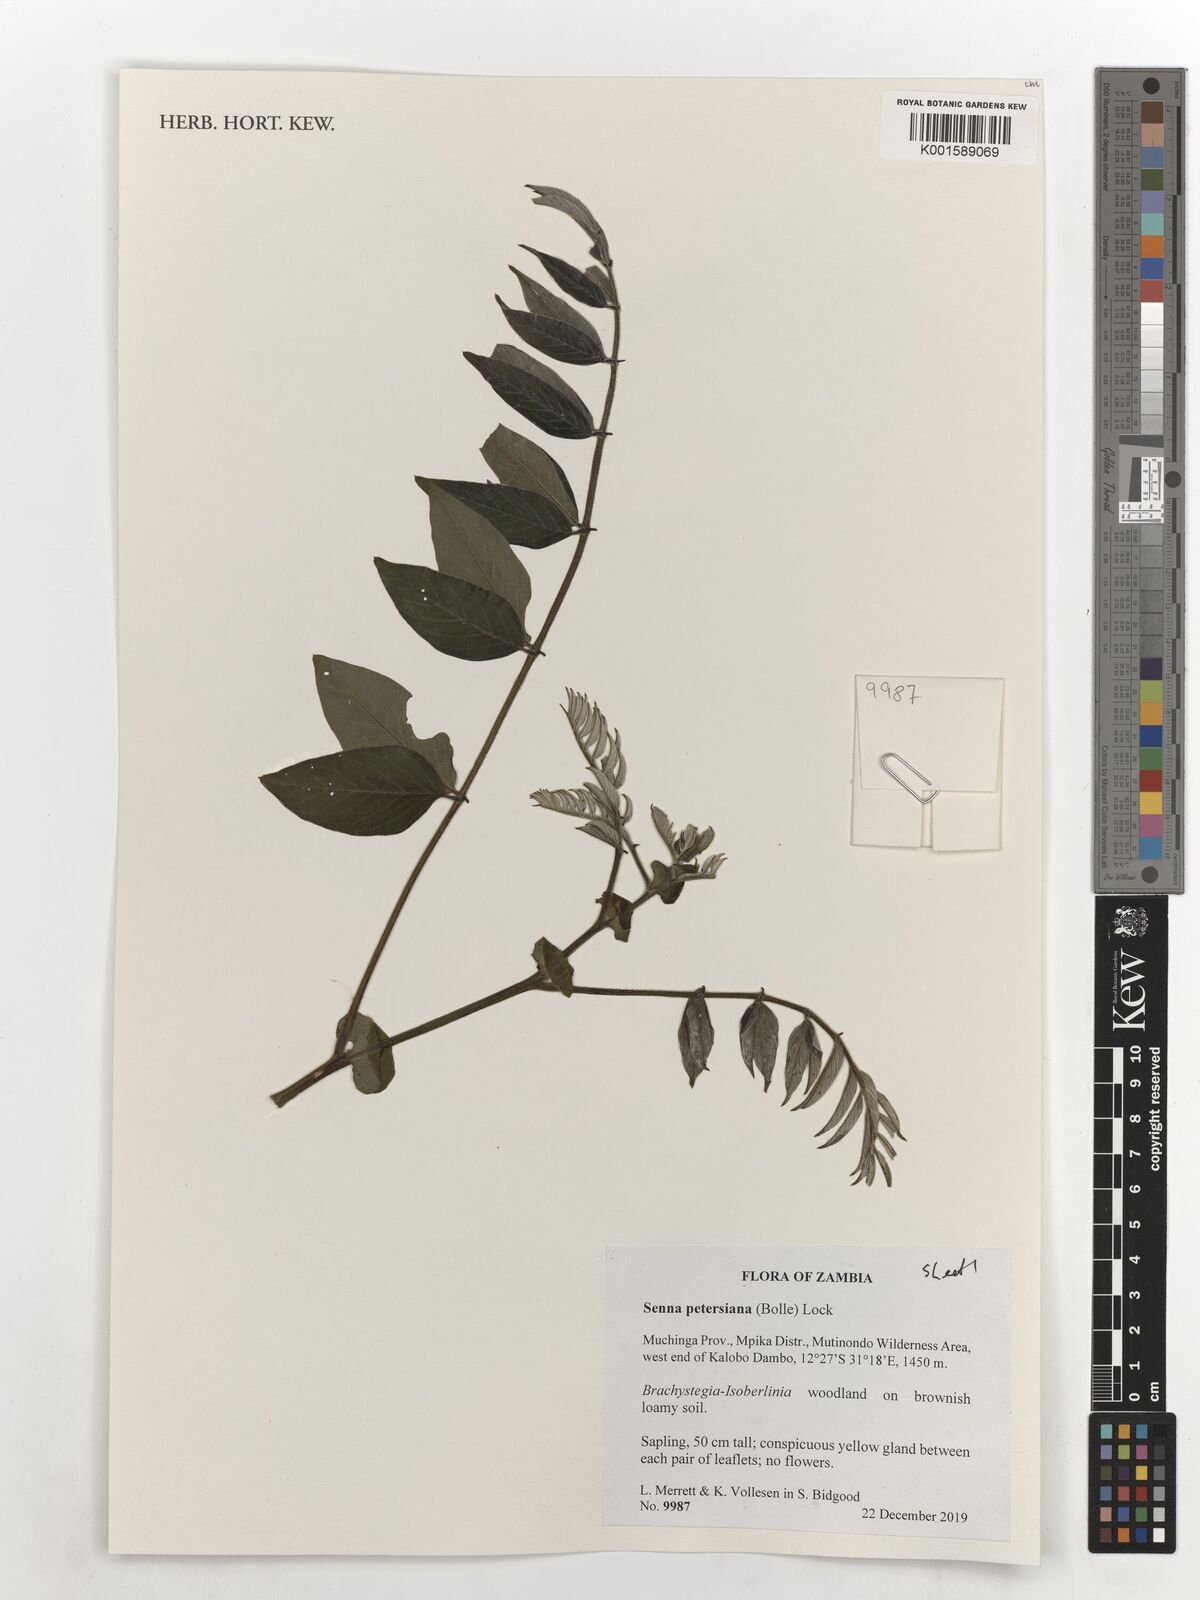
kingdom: Plantae
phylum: Tracheophyta
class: Magnoliopsida
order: Fabales
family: Fabaceae
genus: Senna
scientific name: Senna petersiana
